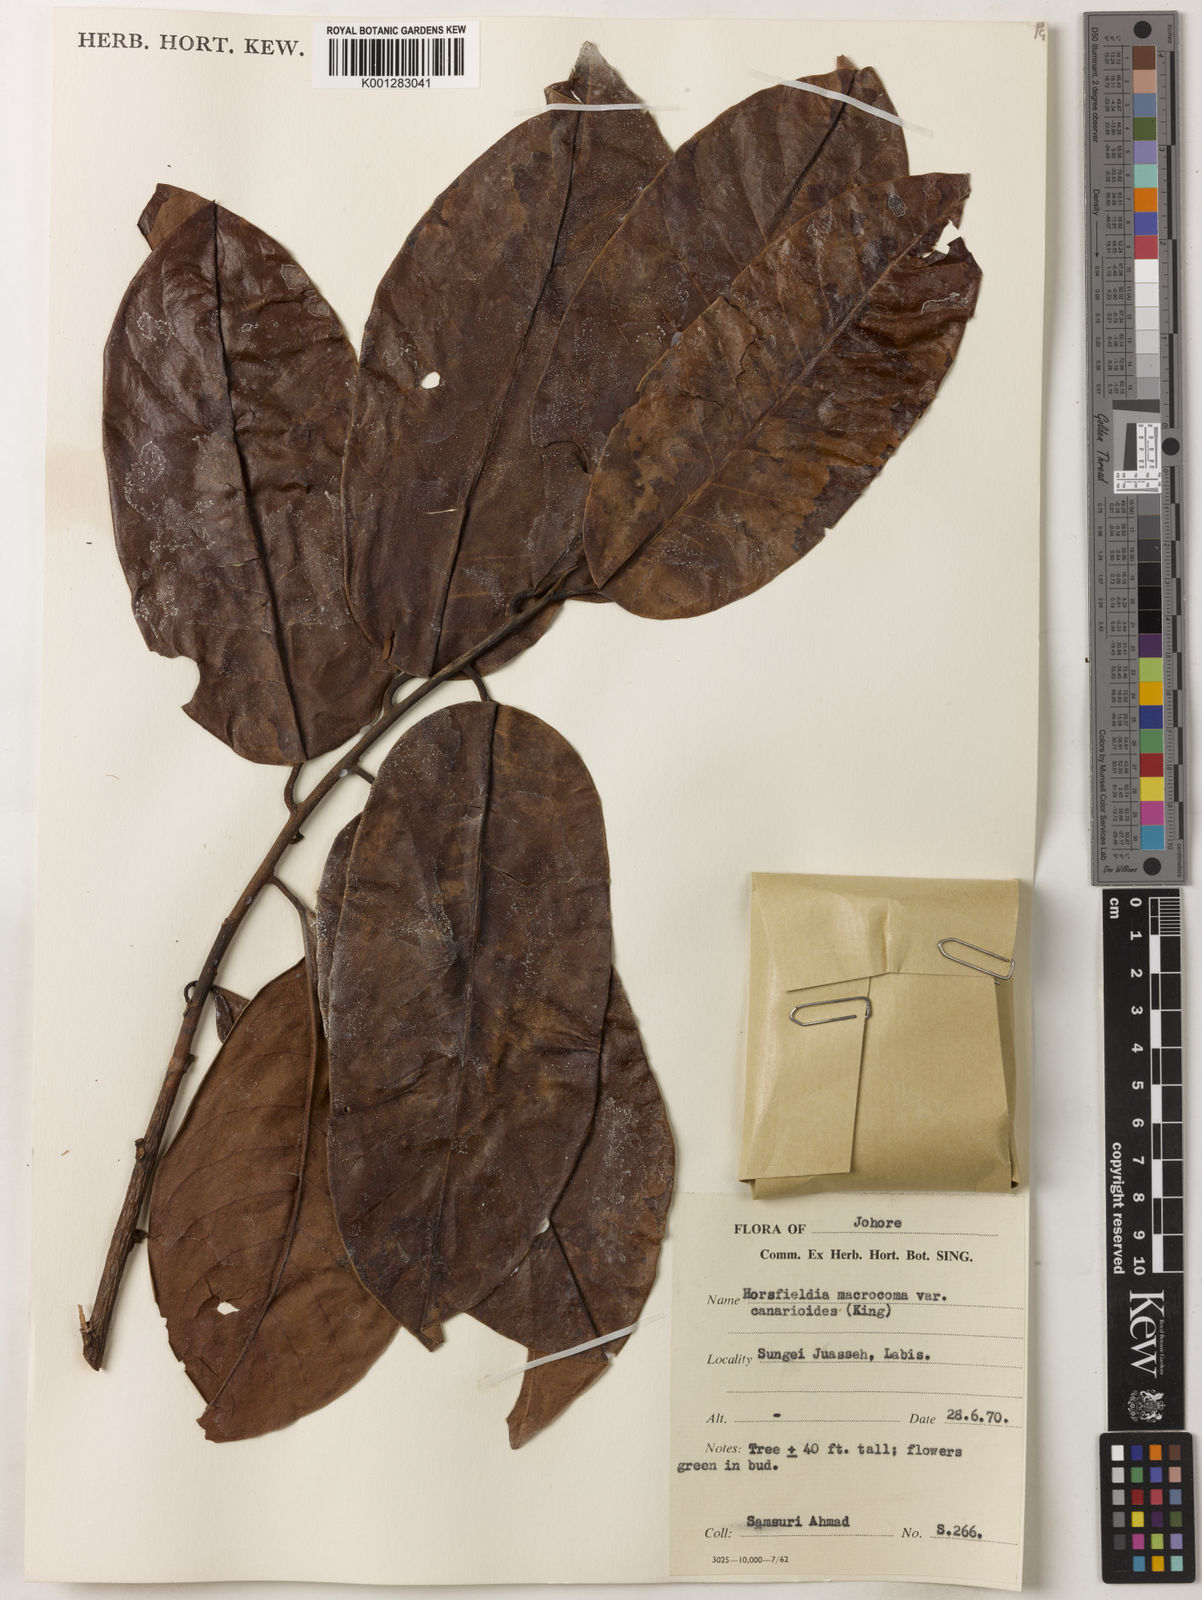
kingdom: Plantae
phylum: Tracheophyta
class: Magnoliopsida
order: Magnoliales
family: Myristicaceae
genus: Endocomia
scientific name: Endocomia canarioides
